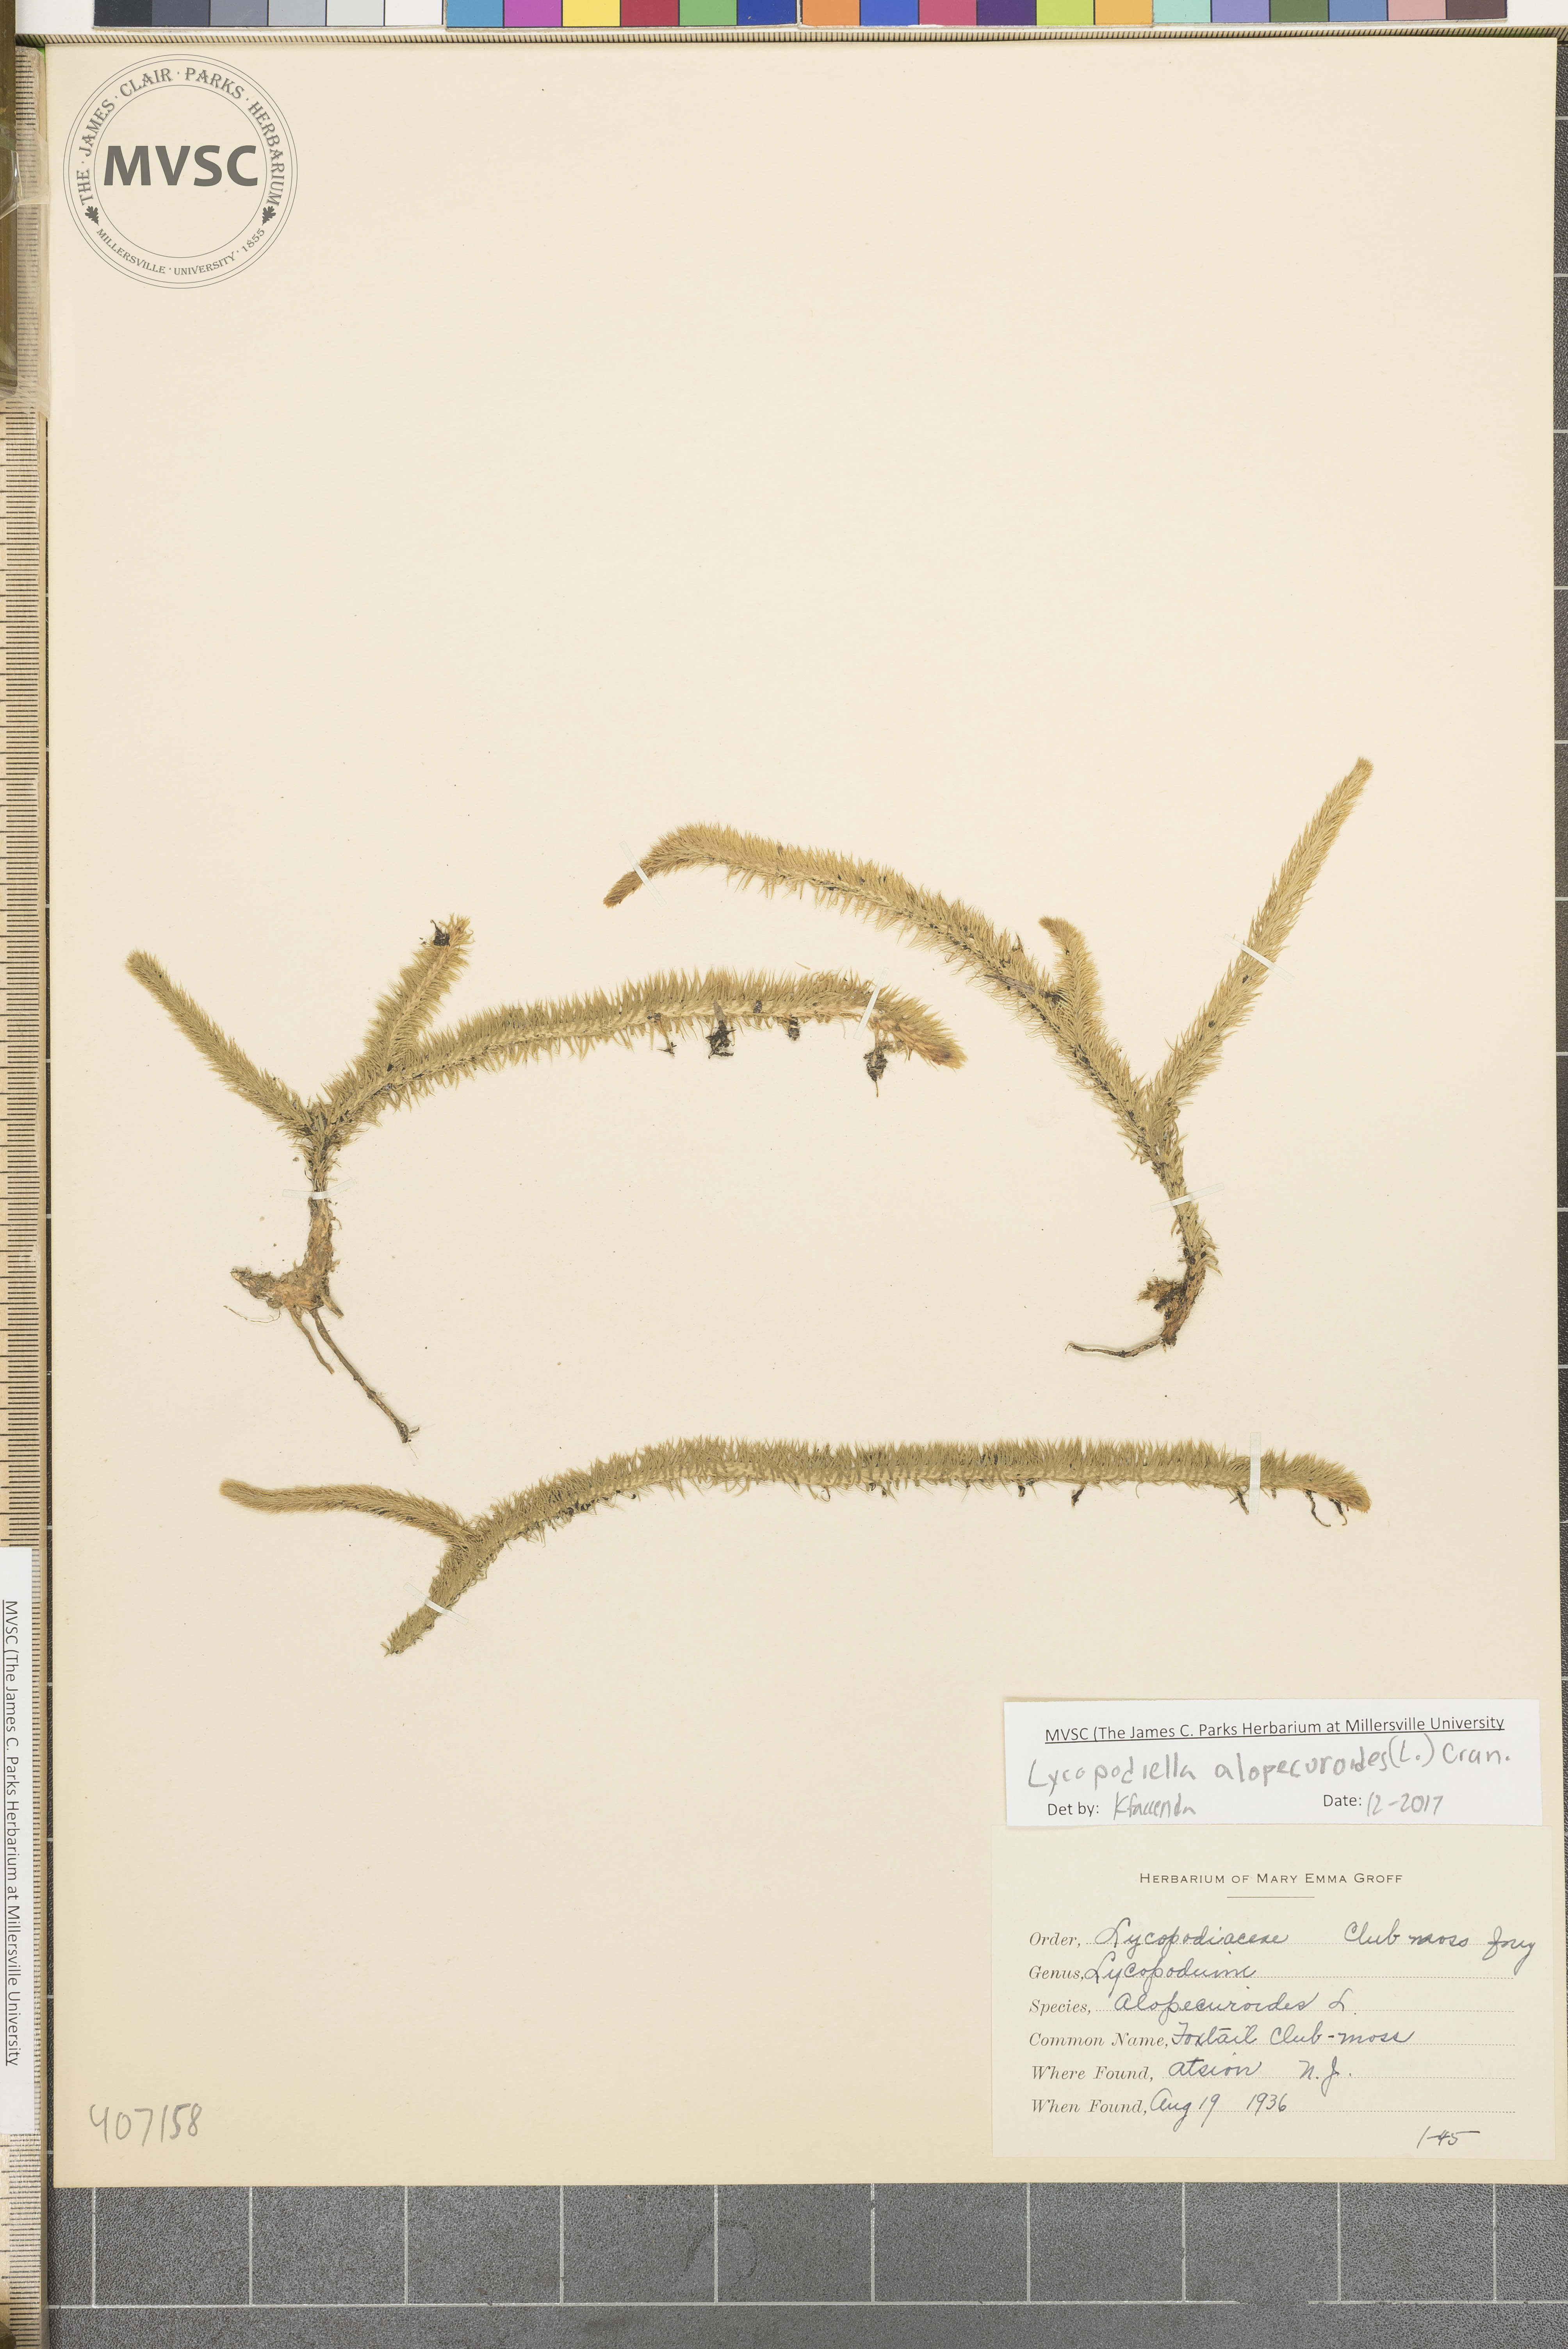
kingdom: Plantae
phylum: Tracheophyta
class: Lycopodiopsida
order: Lycopodiales
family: Lycopodiaceae
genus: Lycopodiella
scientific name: Lycopodiella alopecuroides
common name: Foxtail clubmoss
